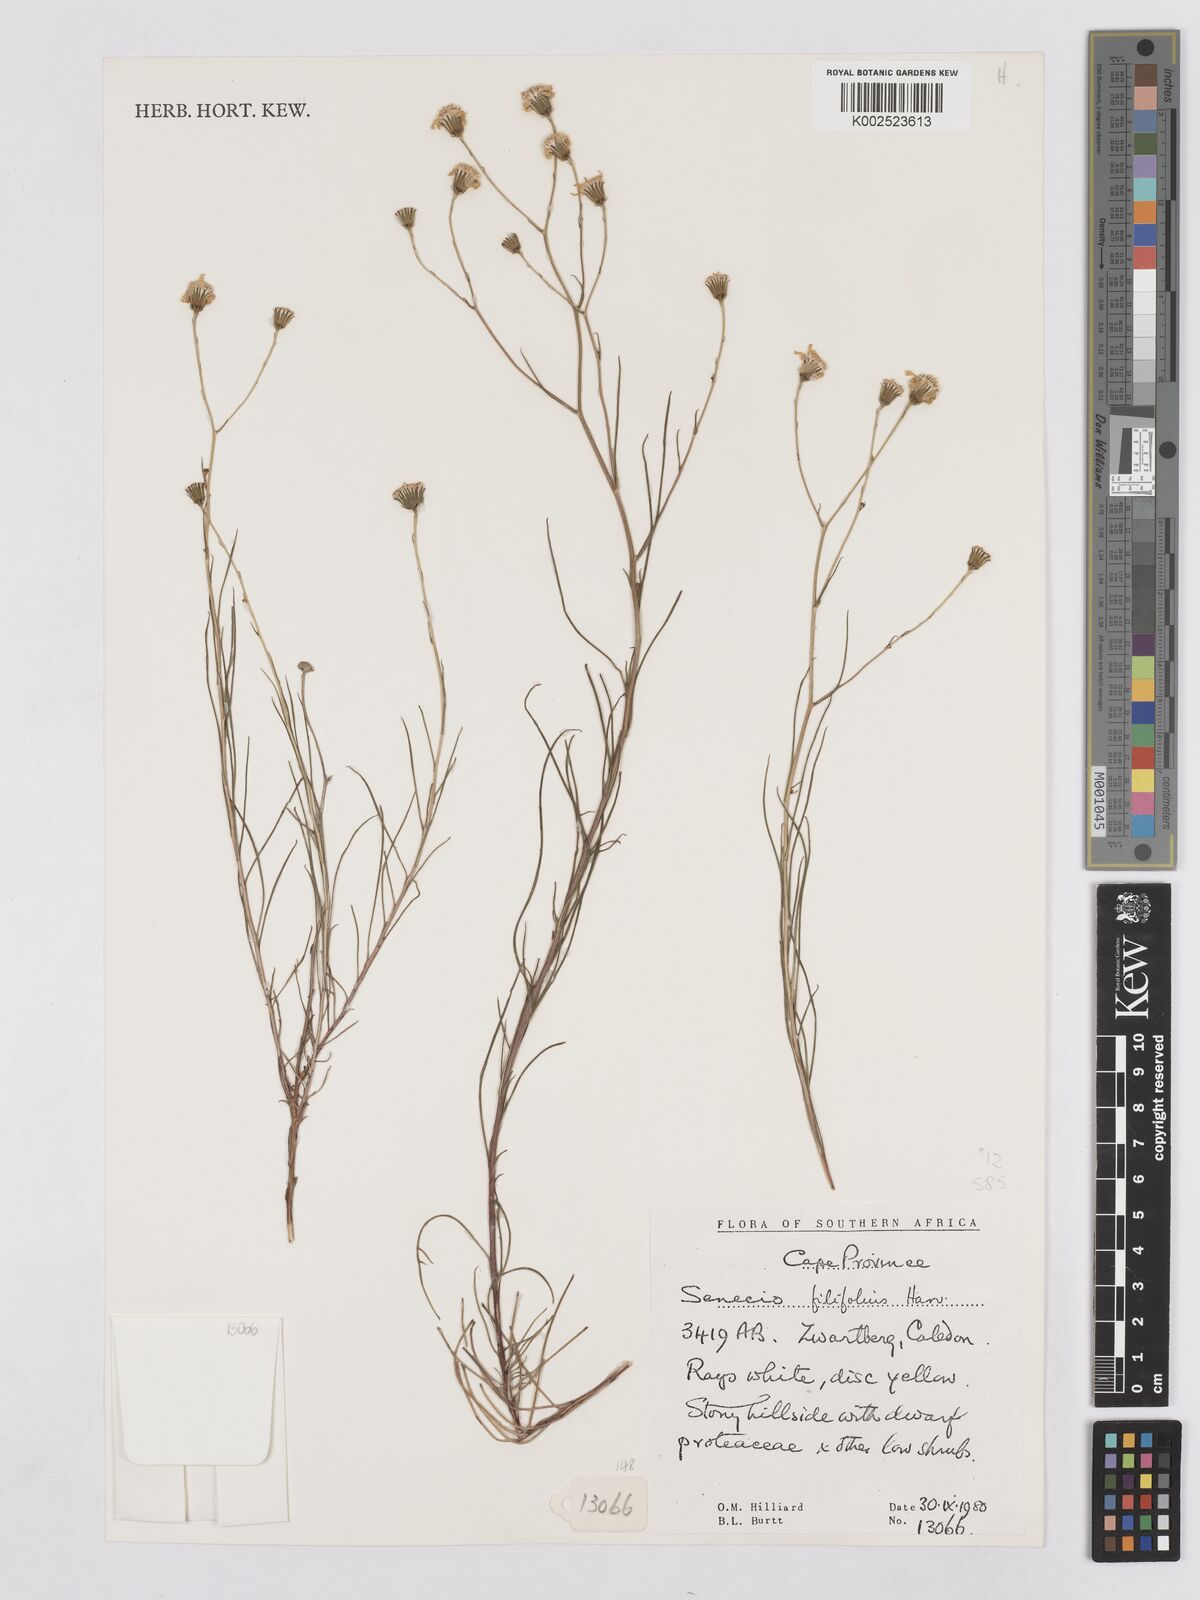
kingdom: Plantae
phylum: Tracheophyta
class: Magnoliopsida
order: Asterales
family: Asteraceae
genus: Senecio
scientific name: Senecio
